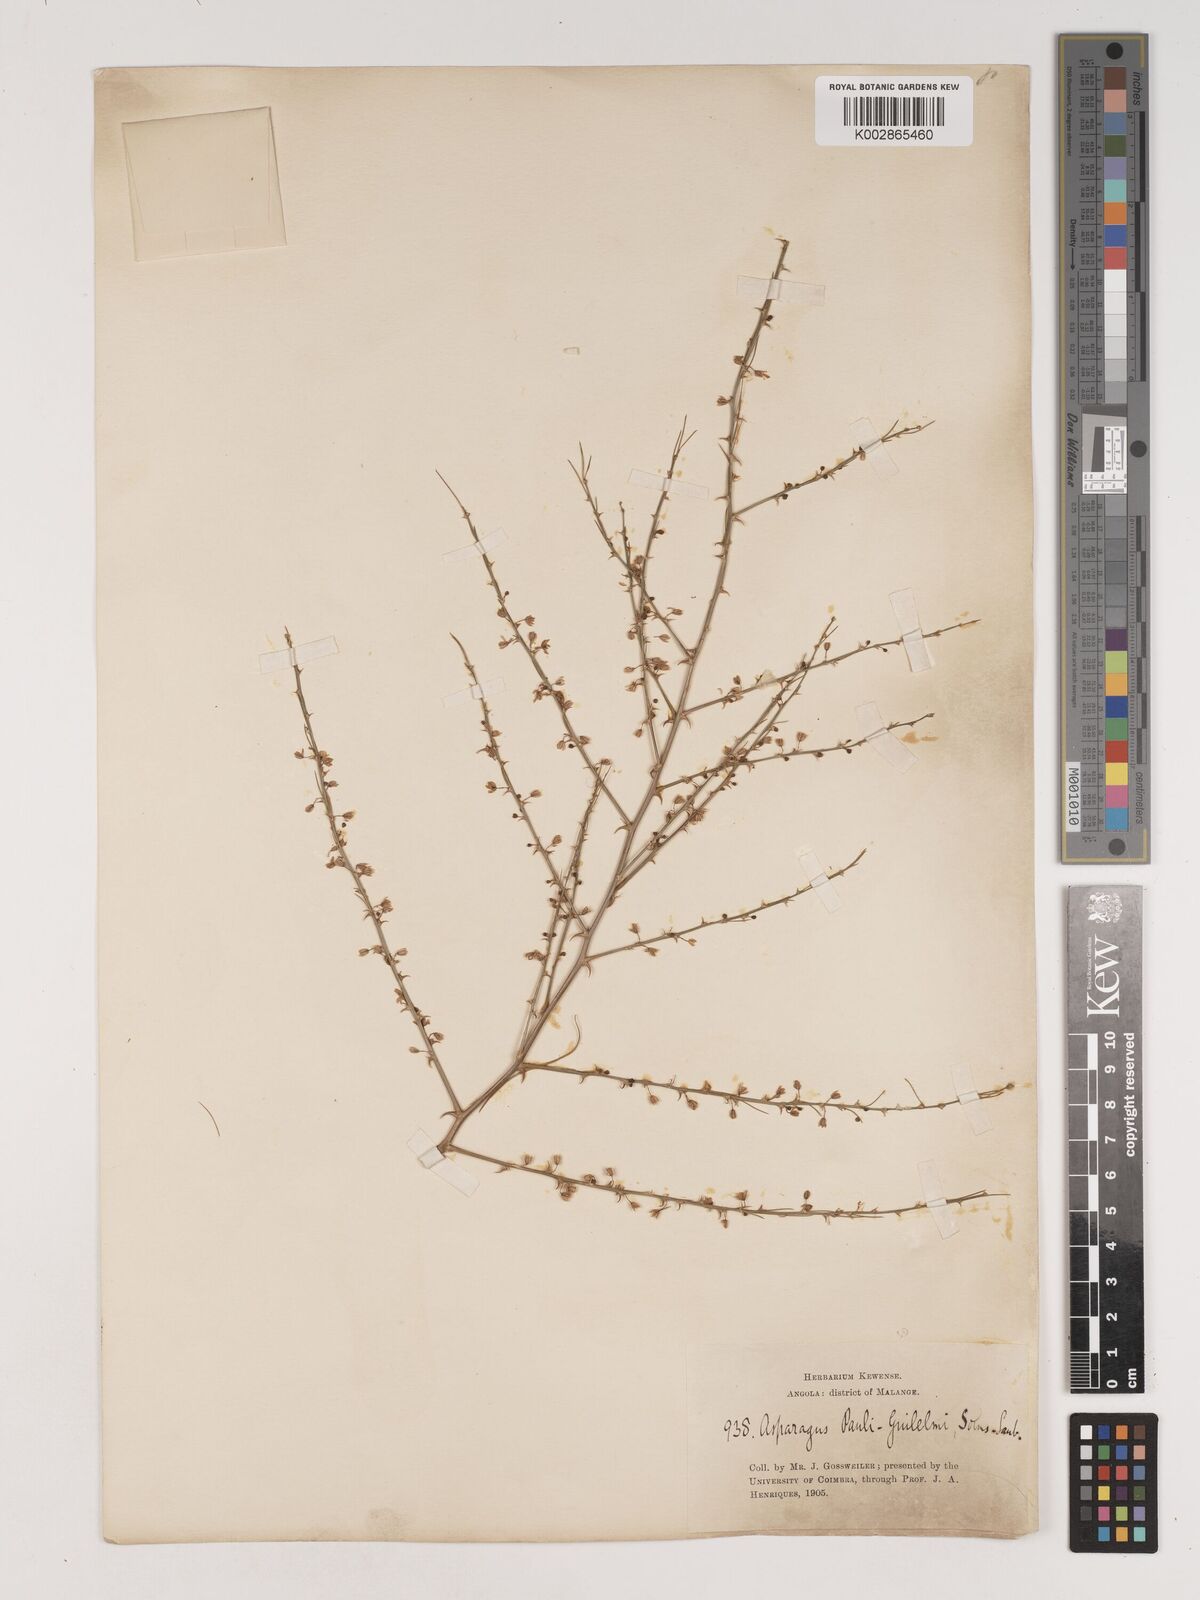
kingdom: Plantae
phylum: Tracheophyta
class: Liliopsida
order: Asparagales
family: Asparagaceae
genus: Asparagus
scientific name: Asparagus flagellaris
